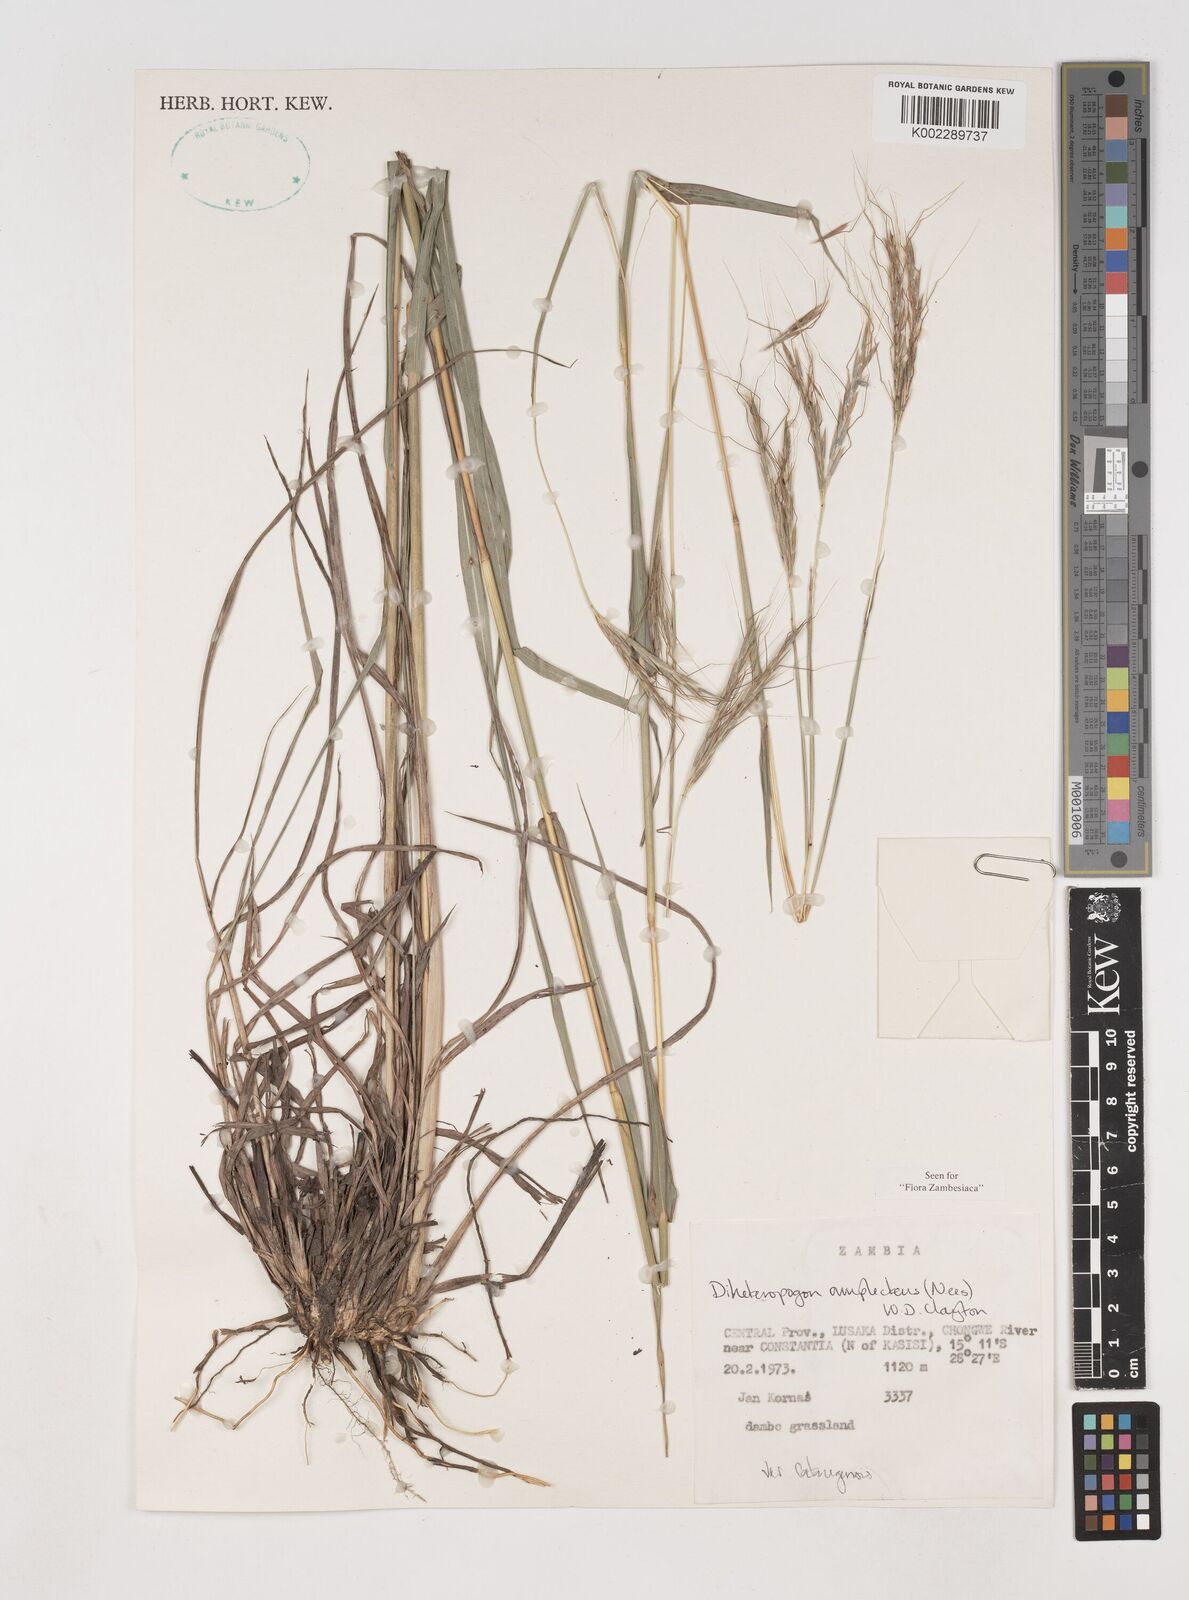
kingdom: Plantae
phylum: Tracheophyta
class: Liliopsida
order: Poales
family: Poaceae
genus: Diheteropogon
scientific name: Diheteropogon amplectens
